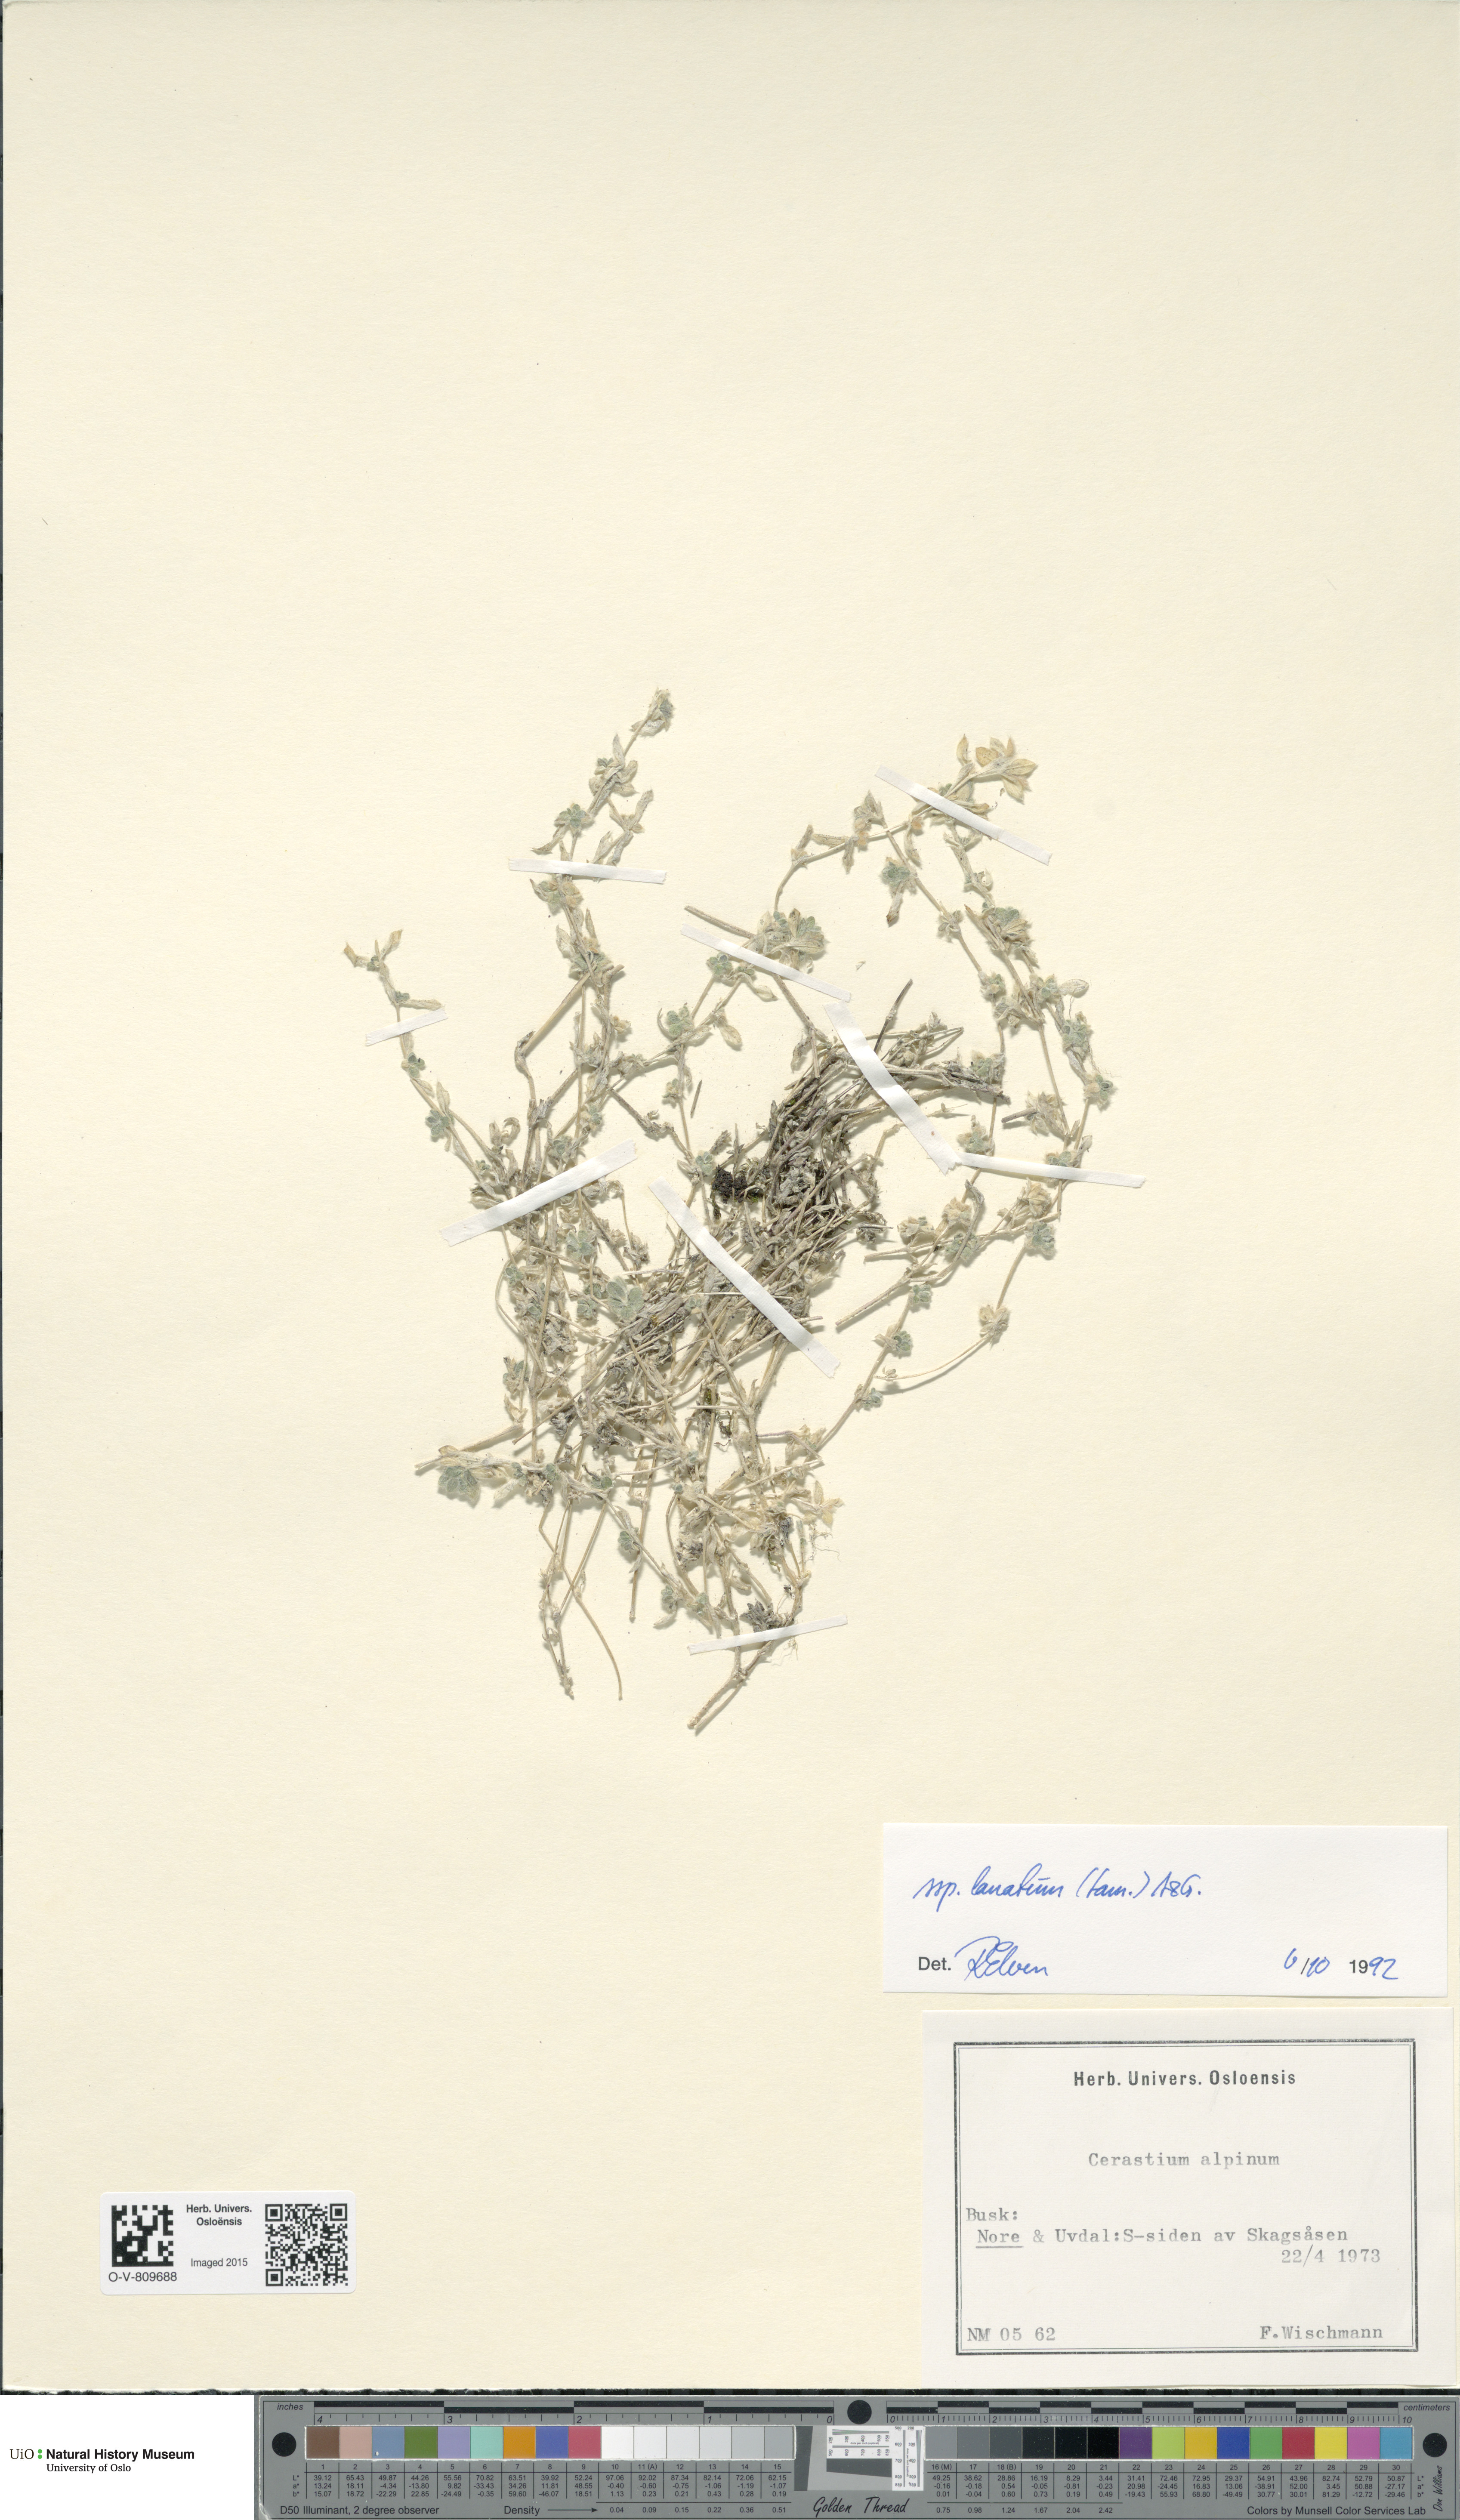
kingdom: Plantae
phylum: Tracheophyta
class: Magnoliopsida
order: Caryophyllales
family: Caryophyllaceae
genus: Cerastium
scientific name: Cerastium alpinum
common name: Alpine mouse-ear
